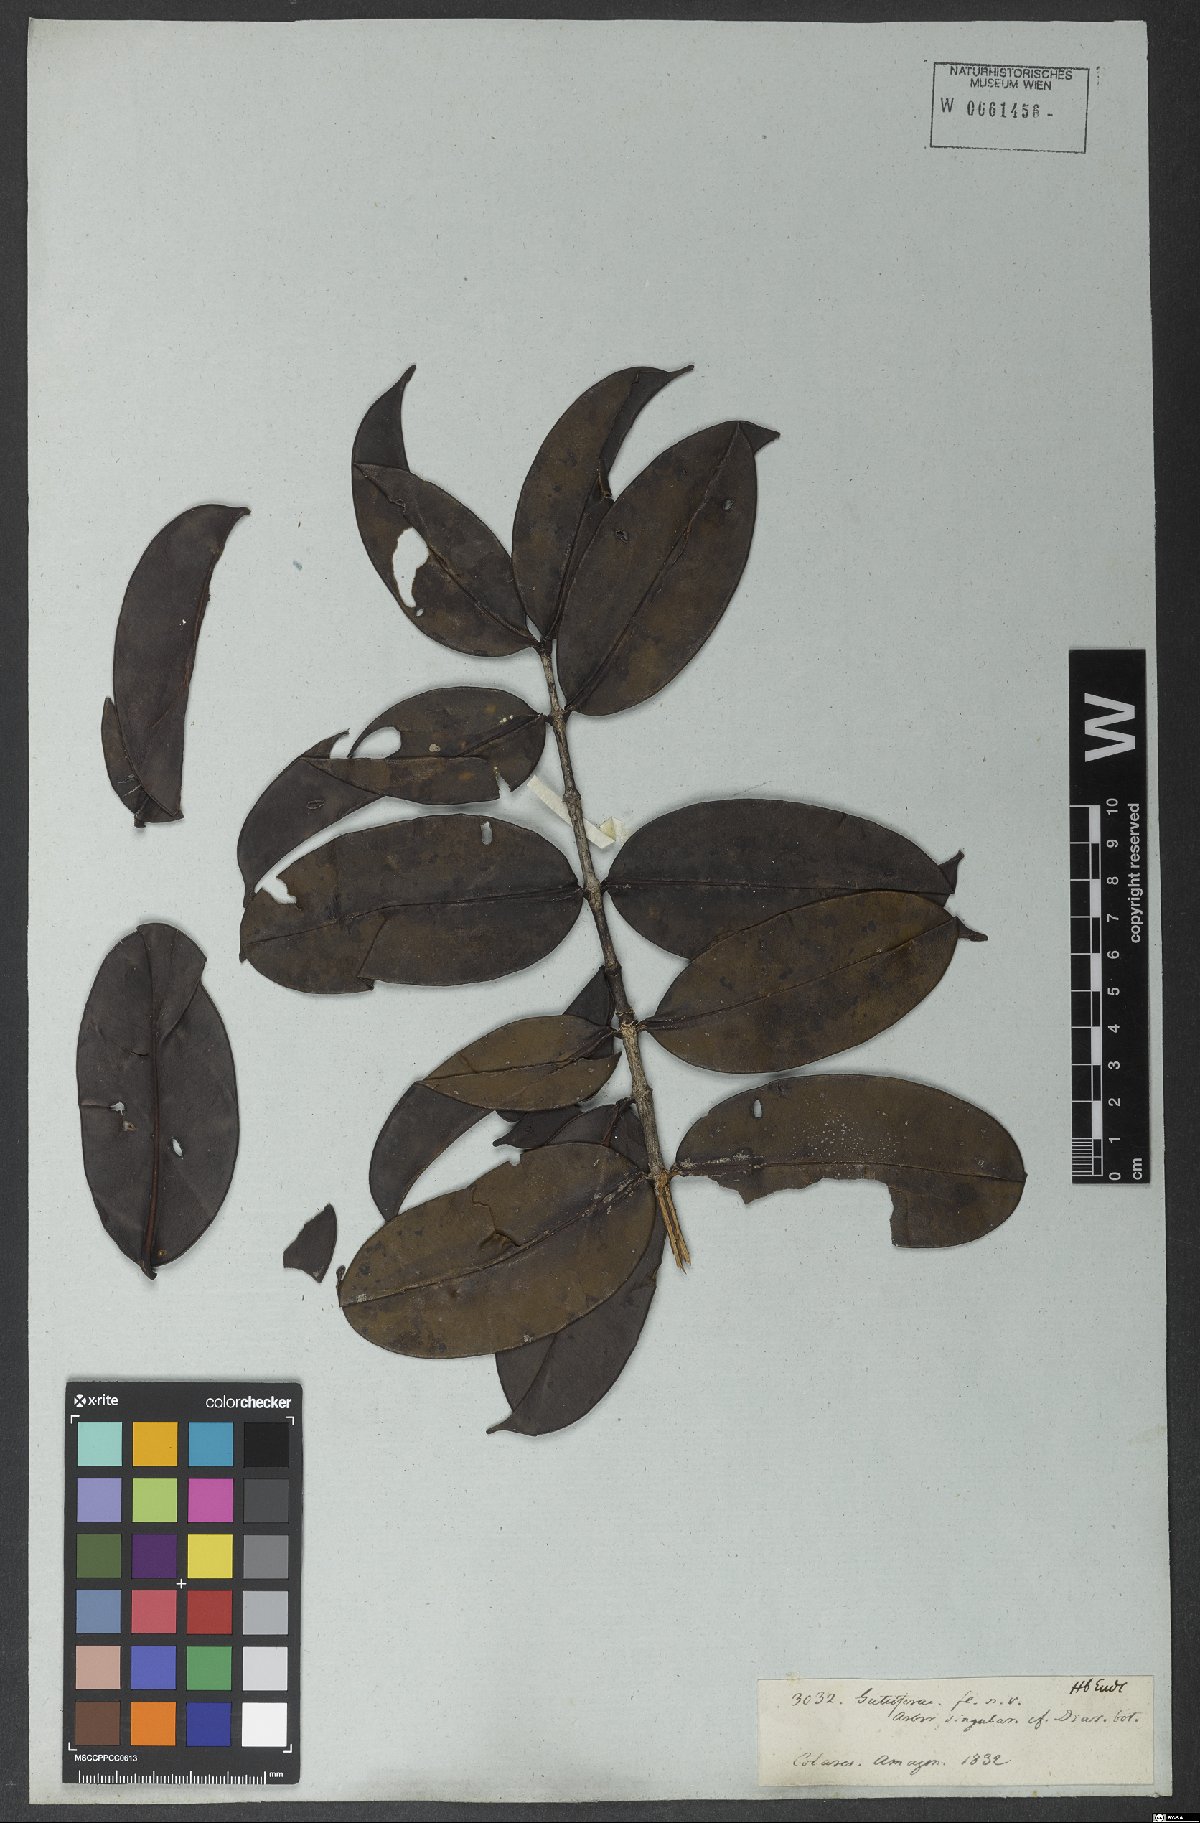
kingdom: Plantae
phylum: Tracheophyta
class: Magnoliopsida
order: Malpighiales
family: Clusiaceae
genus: Platonia
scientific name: Platonia
